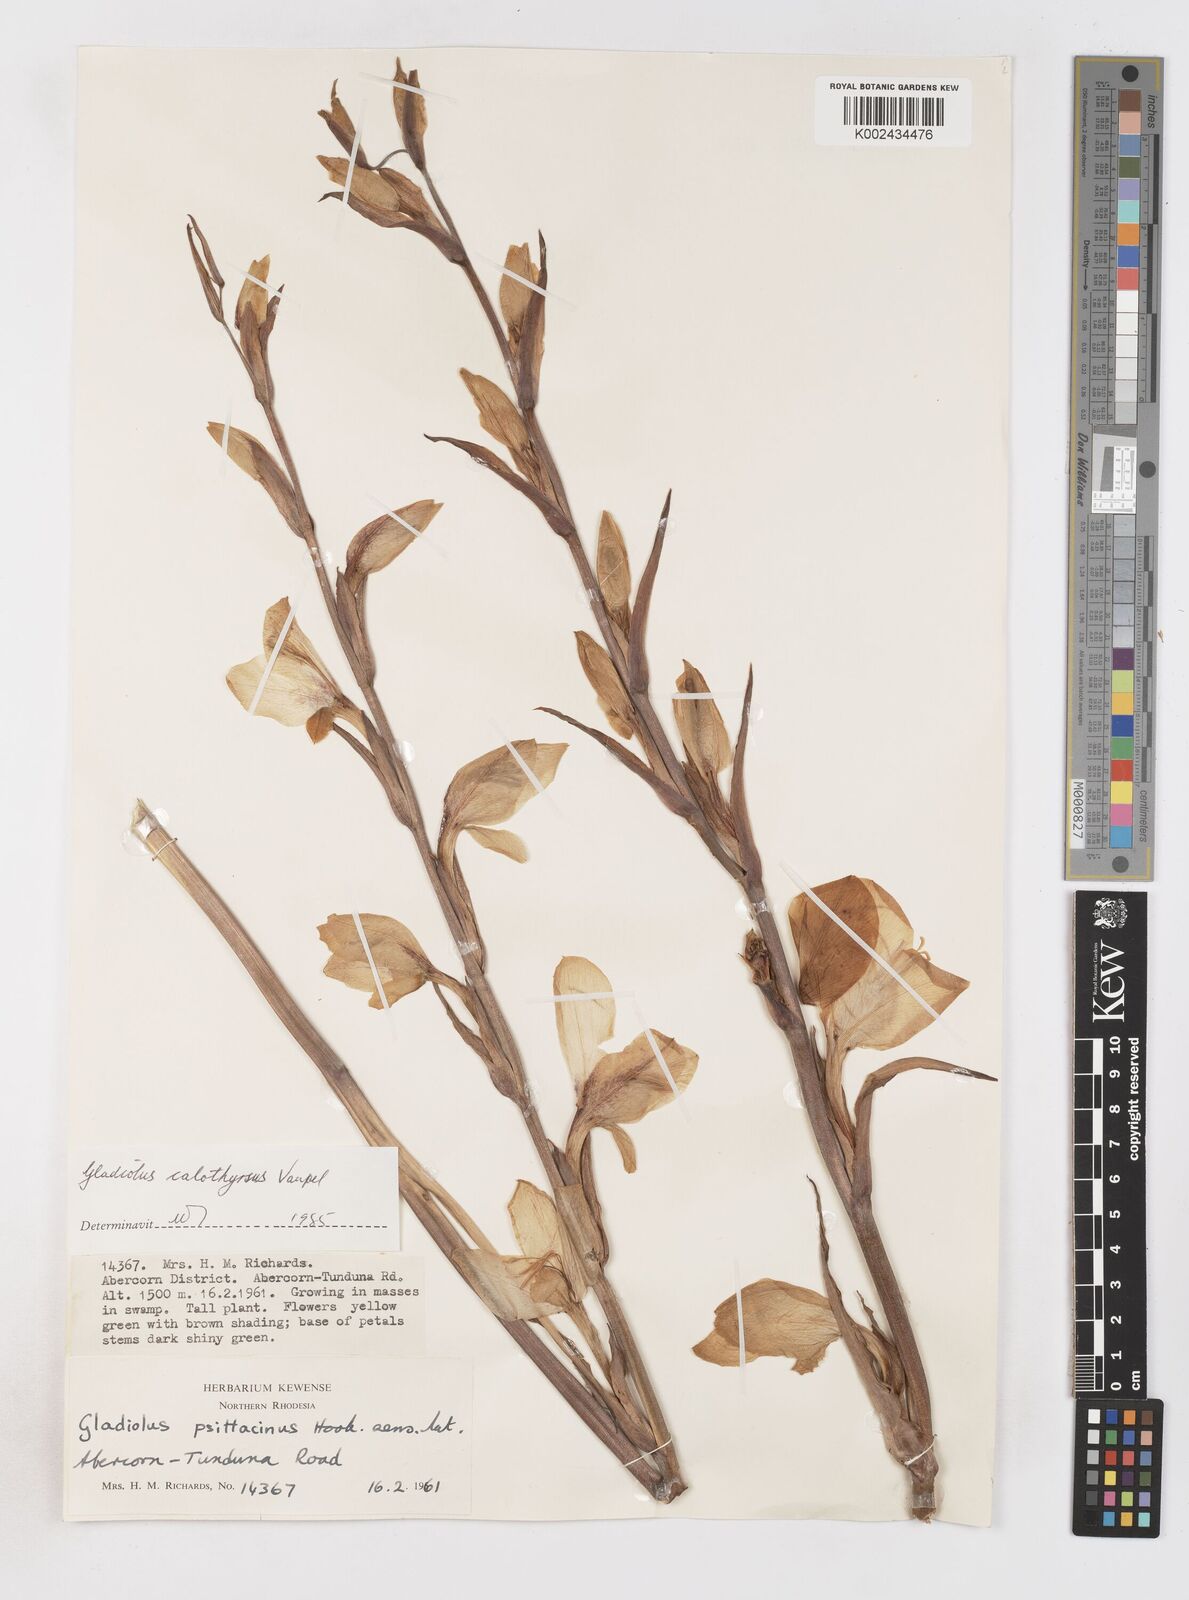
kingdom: Plantae
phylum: Tracheophyta
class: Liliopsida
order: Asparagales
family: Iridaceae
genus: Gladiolus
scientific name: Gladiolus dalenii
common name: Cornflag
